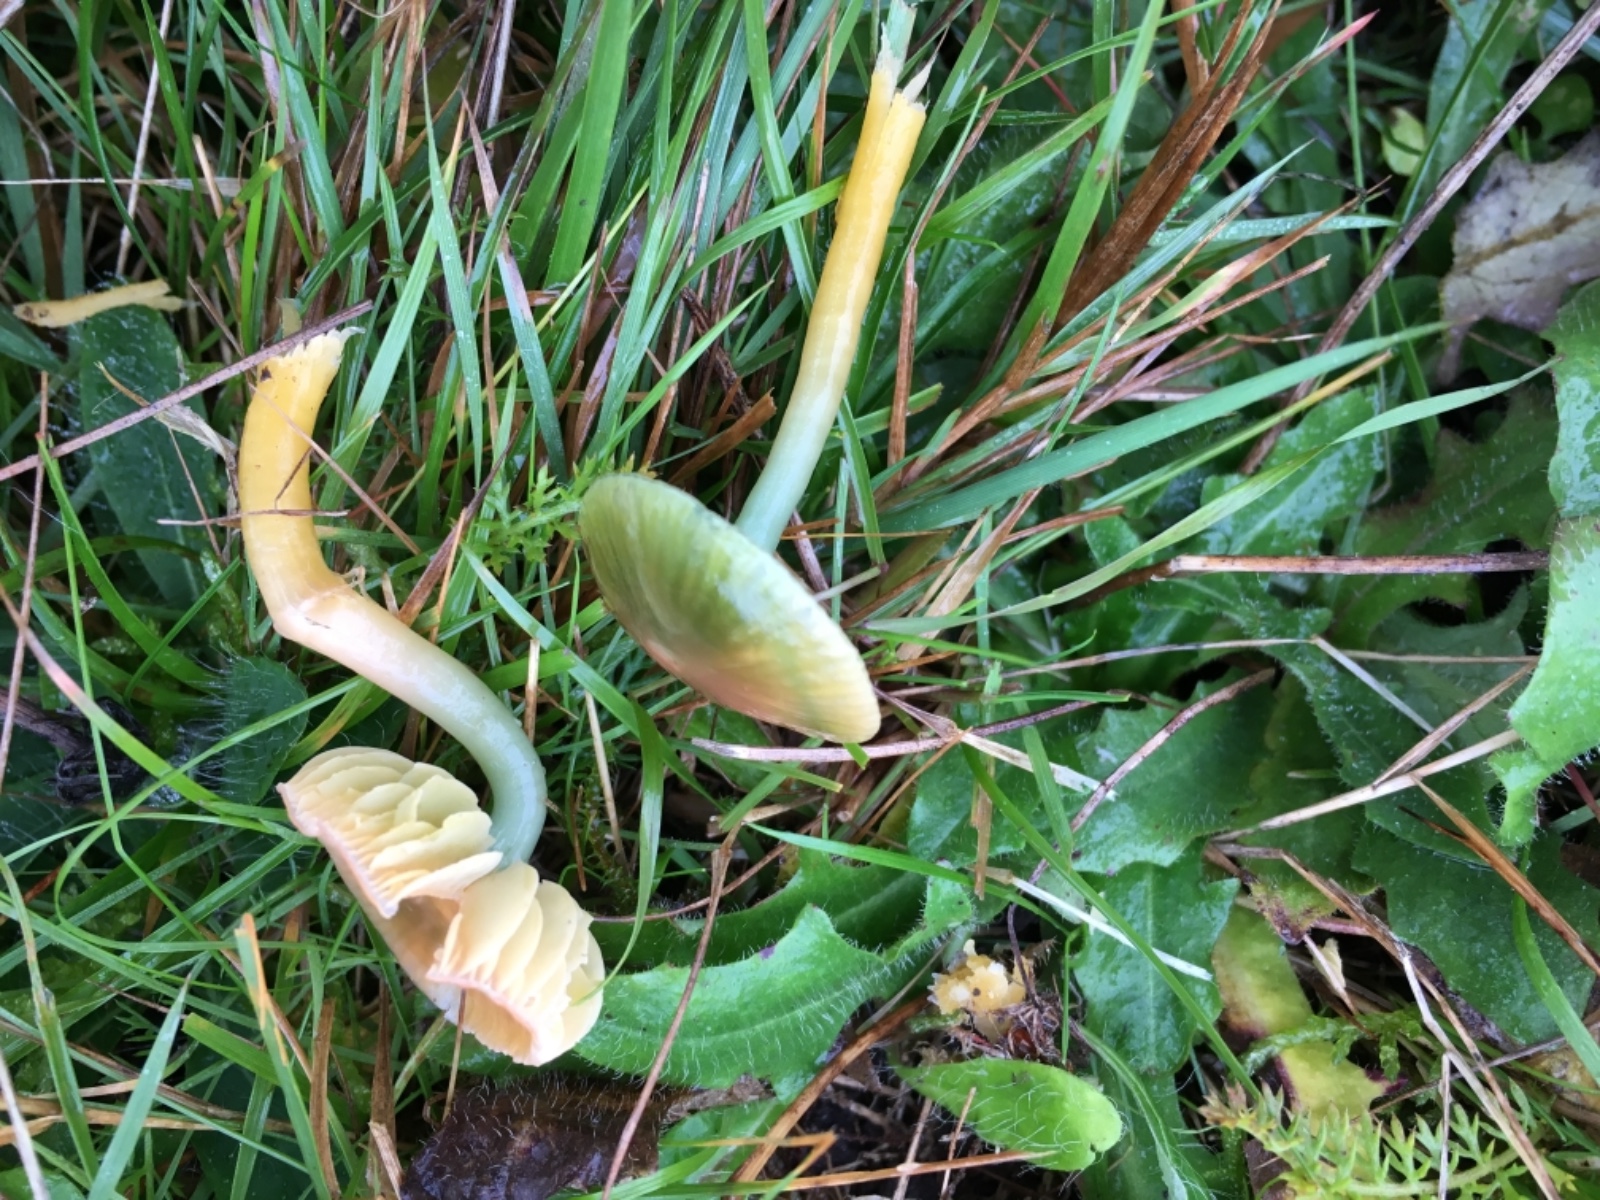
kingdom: Fungi
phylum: Basidiomycota
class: Agaricomycetes
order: Agaricales
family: Hygrophoraceae
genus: Gliophorus
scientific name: Gliophorus psittacinus
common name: papegøje-vokshat
